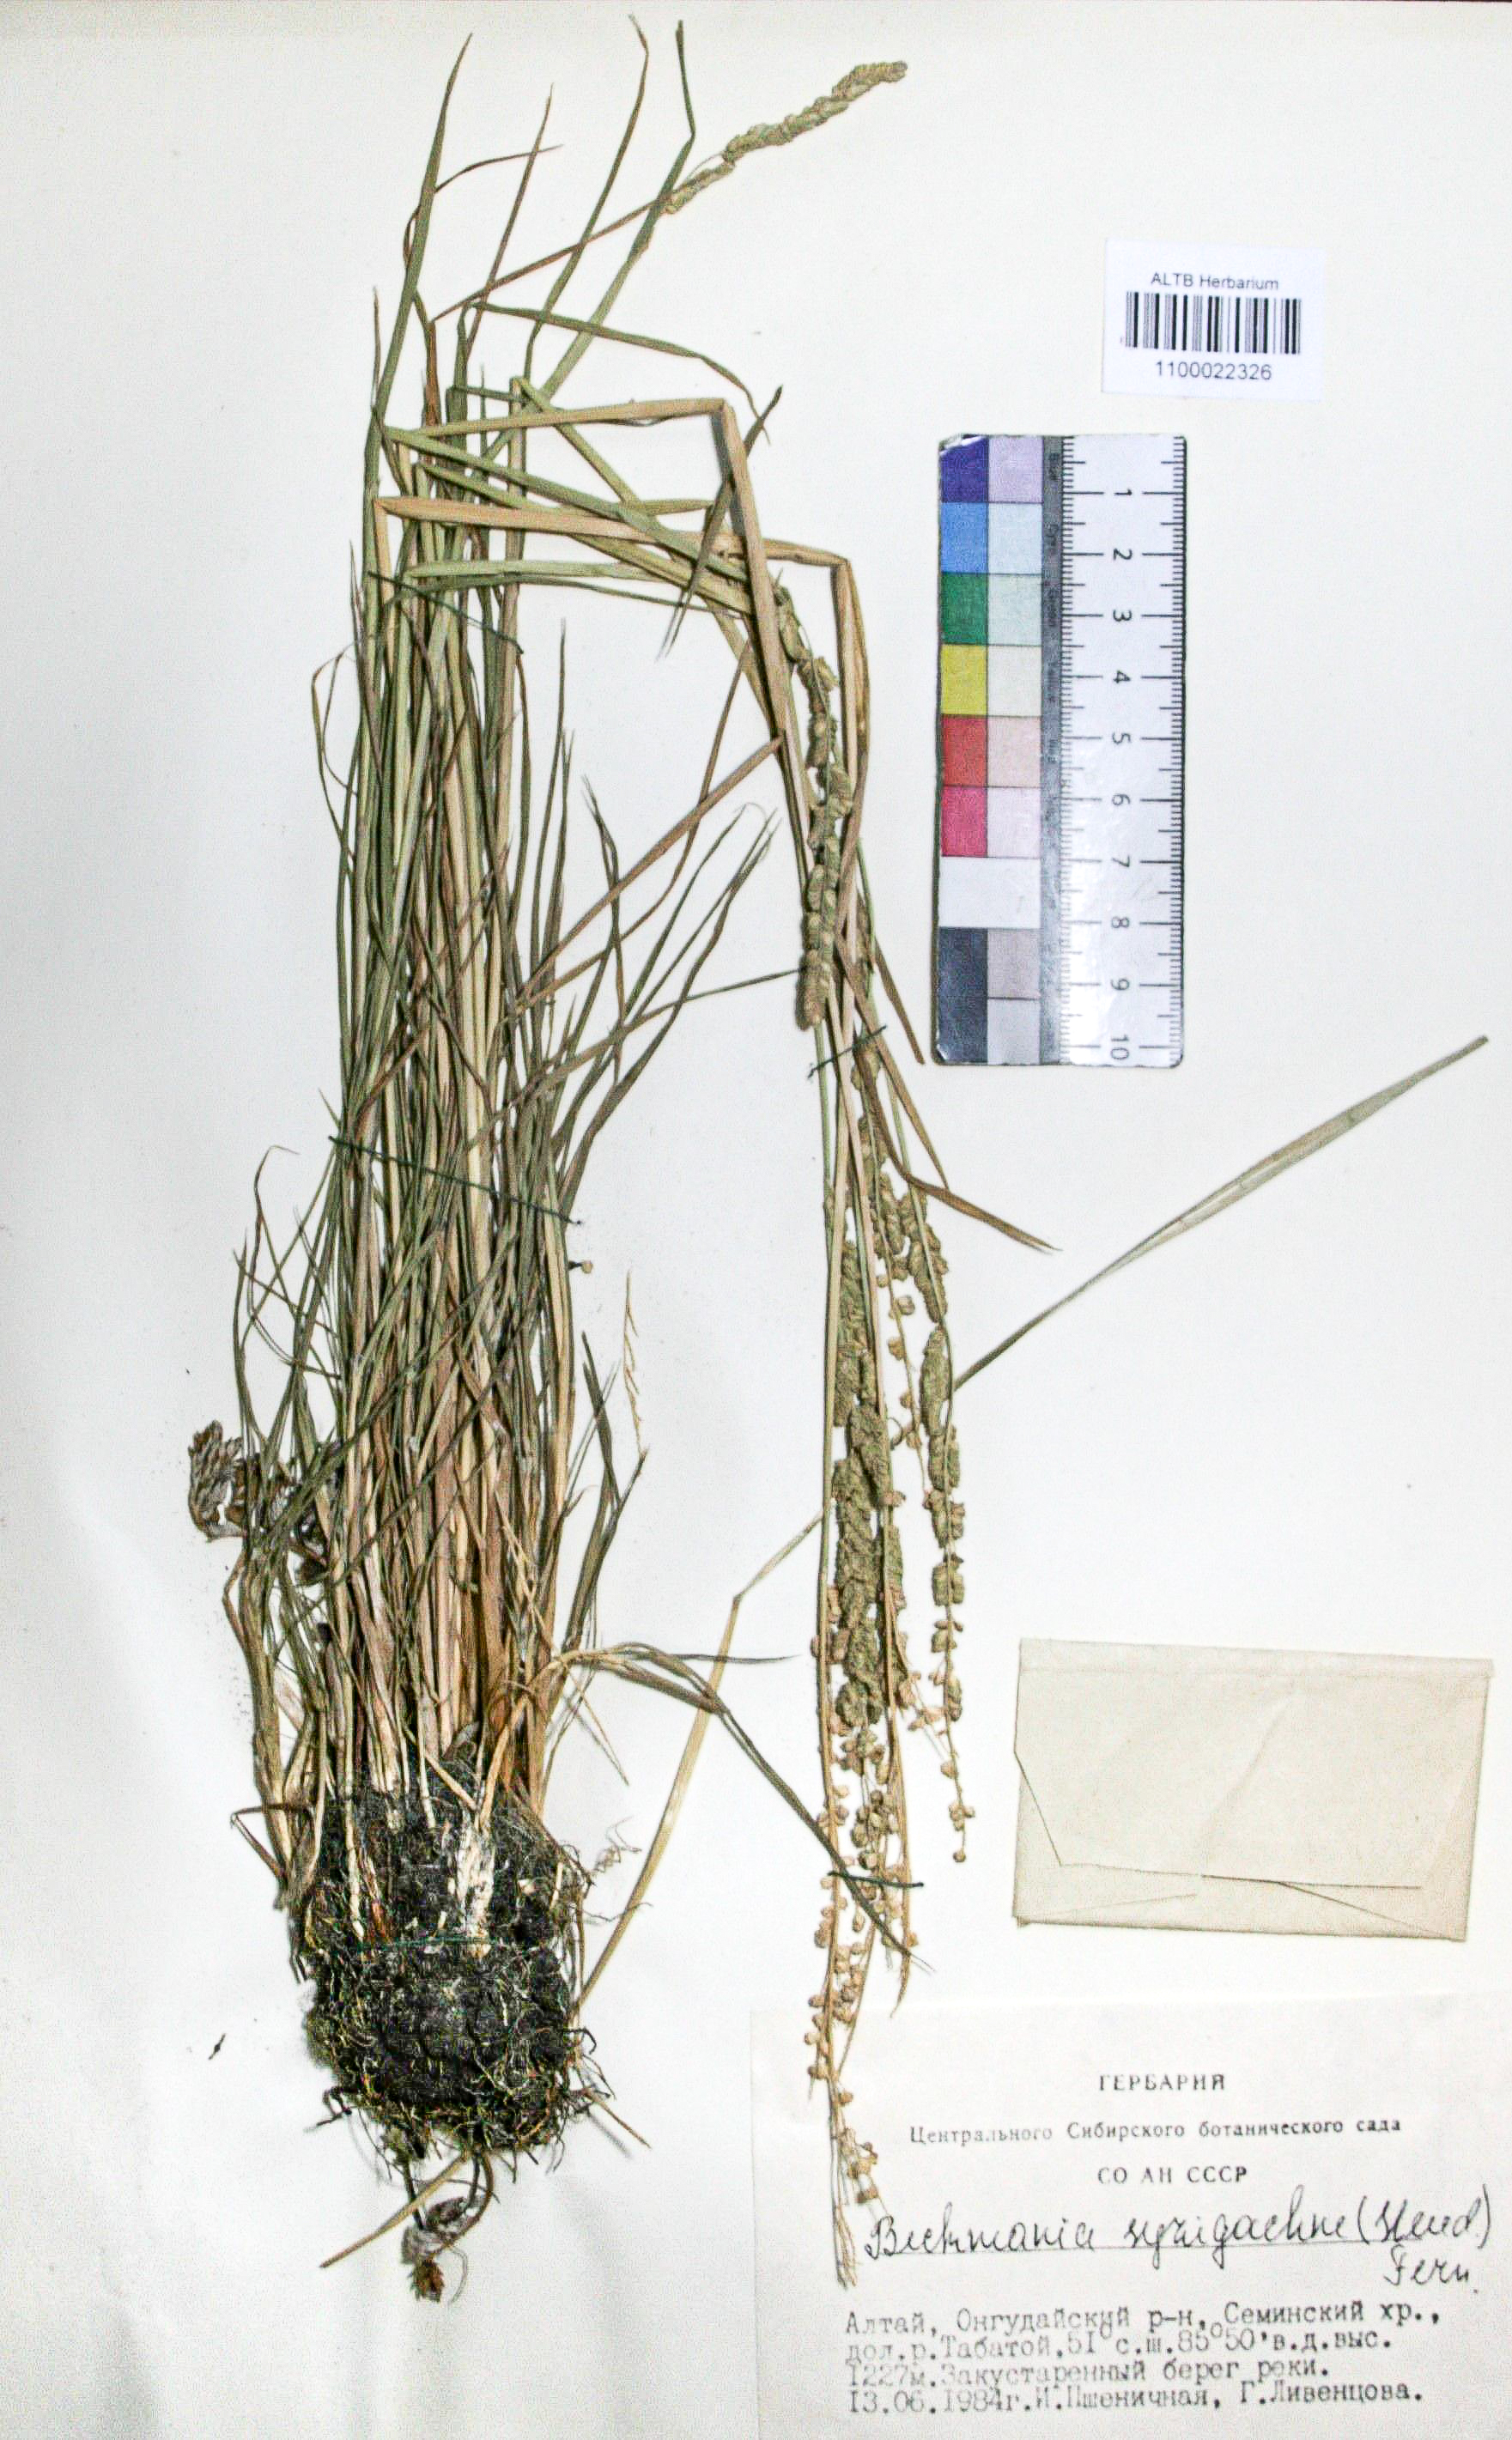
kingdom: Plantae
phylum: Tracheophyta
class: Liliopsida
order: Poales
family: Poaceae
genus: Beckmannia
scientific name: Beckmannia syzigachne
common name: American slough-grass
